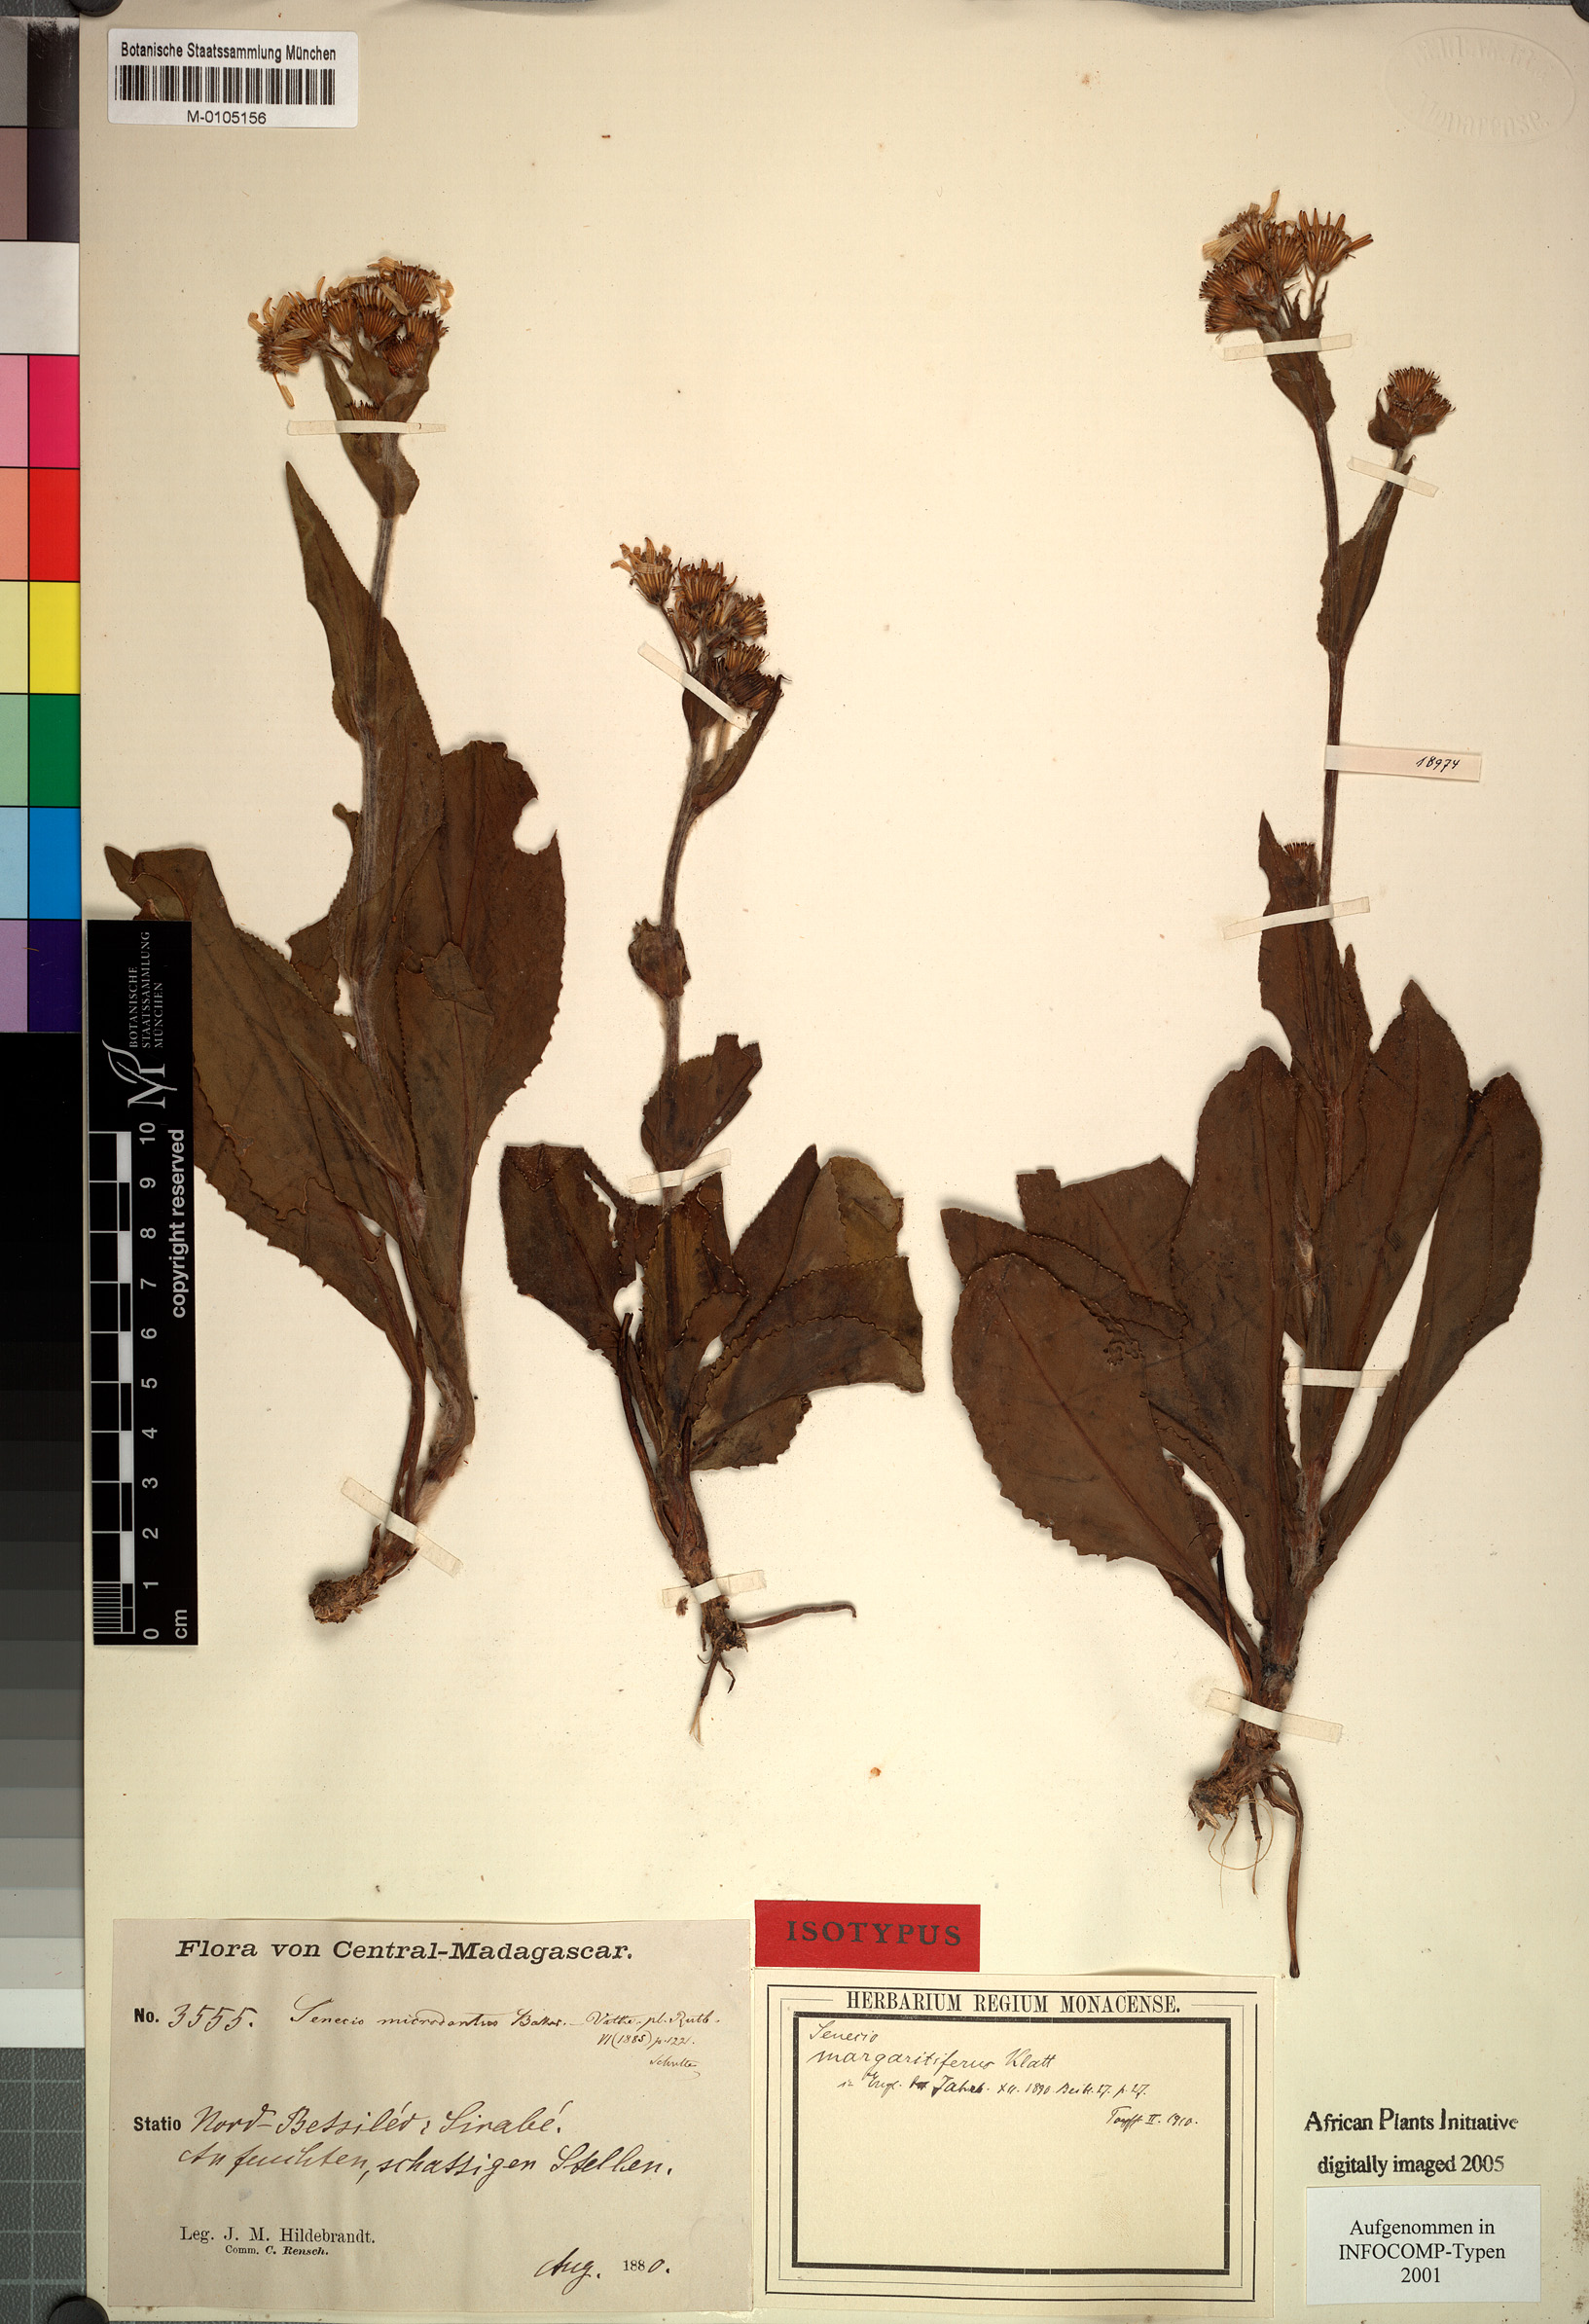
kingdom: Plantae
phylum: Tracheophyta
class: Magnoliopsida
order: Asterales
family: Asteraceae
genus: Senecio
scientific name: Senecio adscendens
